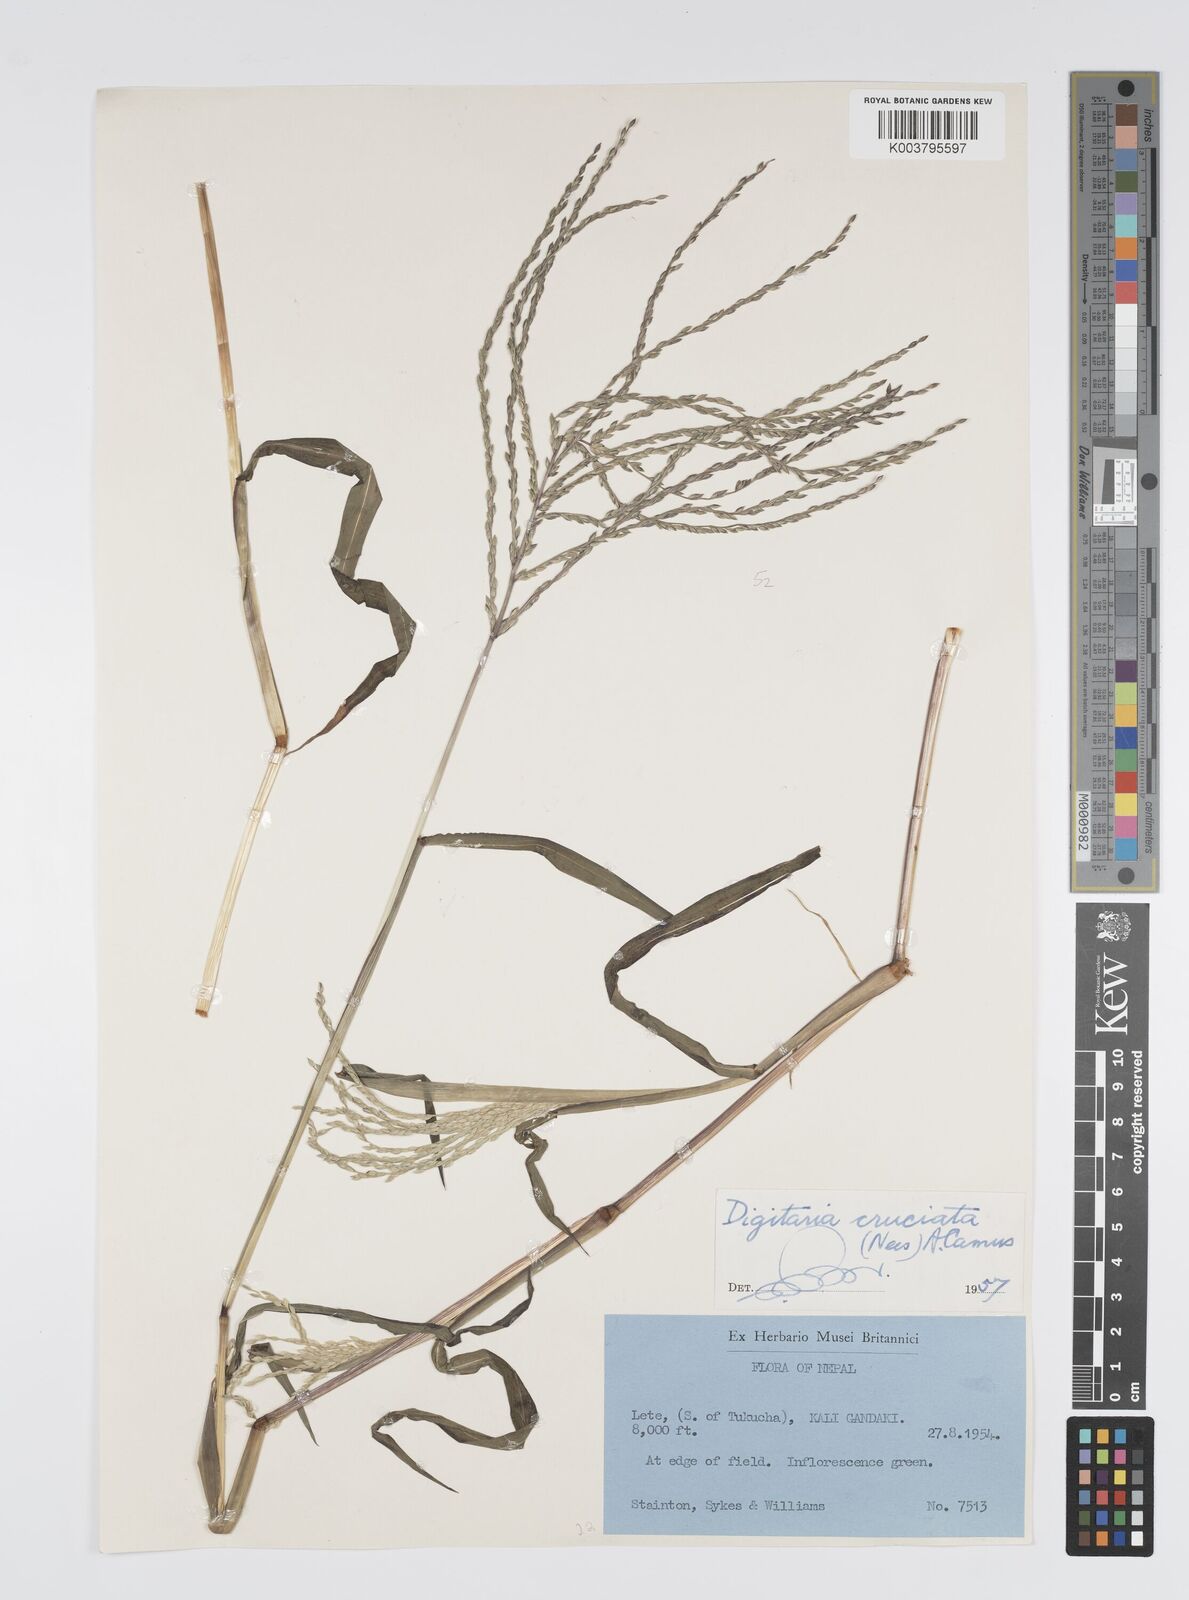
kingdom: Plantae
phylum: Tracheophyta
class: Liliopsida
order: Poales
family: Poaceae
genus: Digitaria
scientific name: Digitaria sanguinalis
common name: Hairy crabgrass
